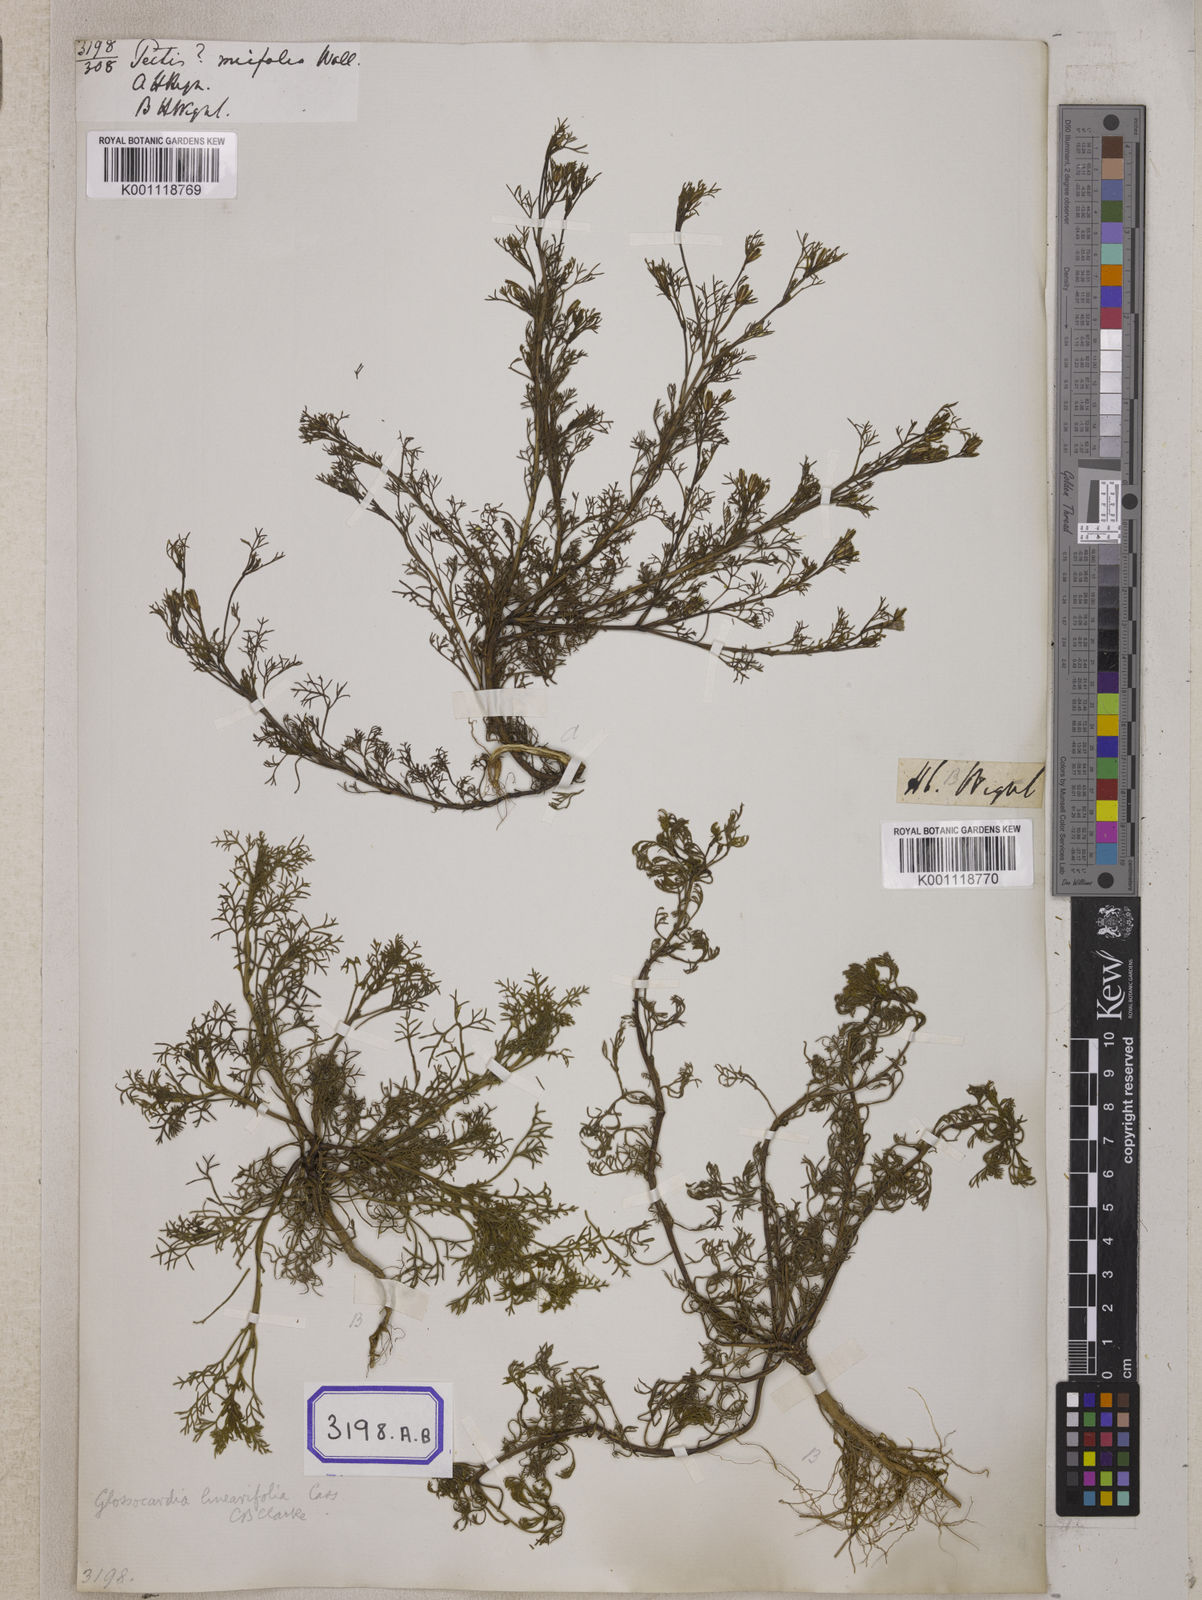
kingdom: Plantae
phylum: Tracheophyta
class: Magnoliopsida
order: Asterales
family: Asteraceae
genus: Glossocardia
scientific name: Glossocardia bosvallia
